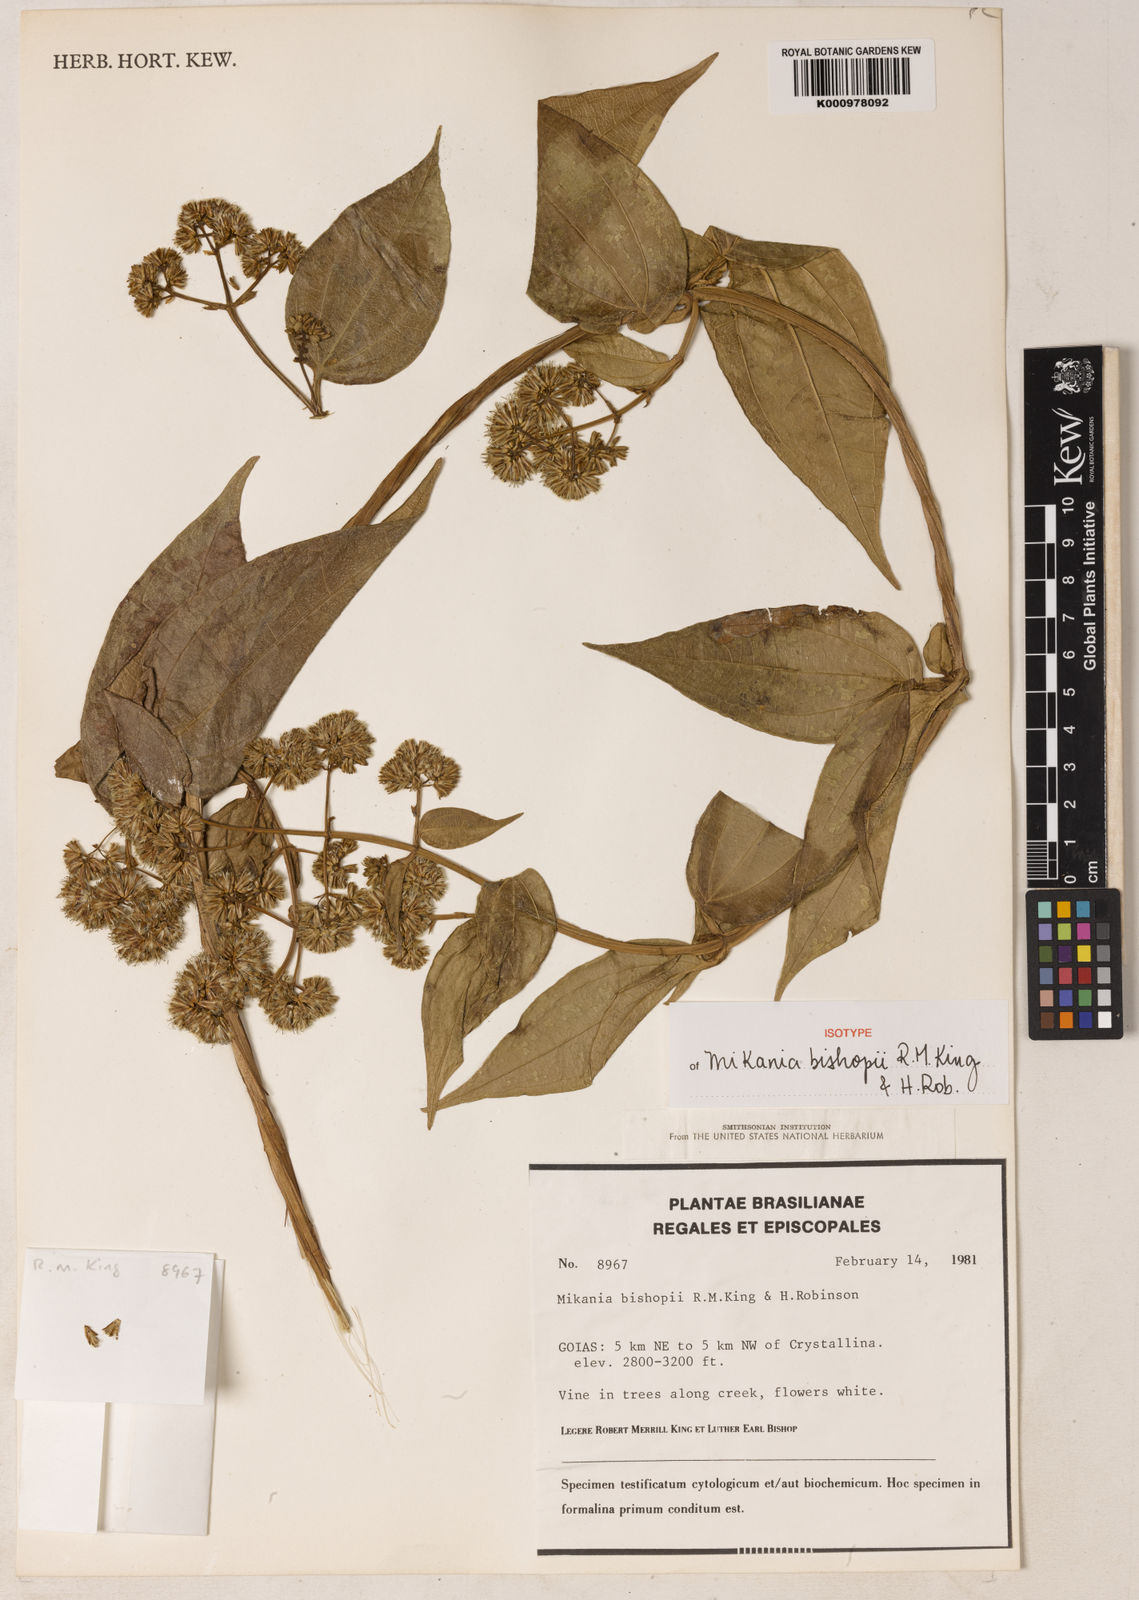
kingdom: Plantae
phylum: Tracheophyta
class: Magnoliopsida
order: Asterales
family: Asteraceae
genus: Mikania
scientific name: Mikania bishopii
